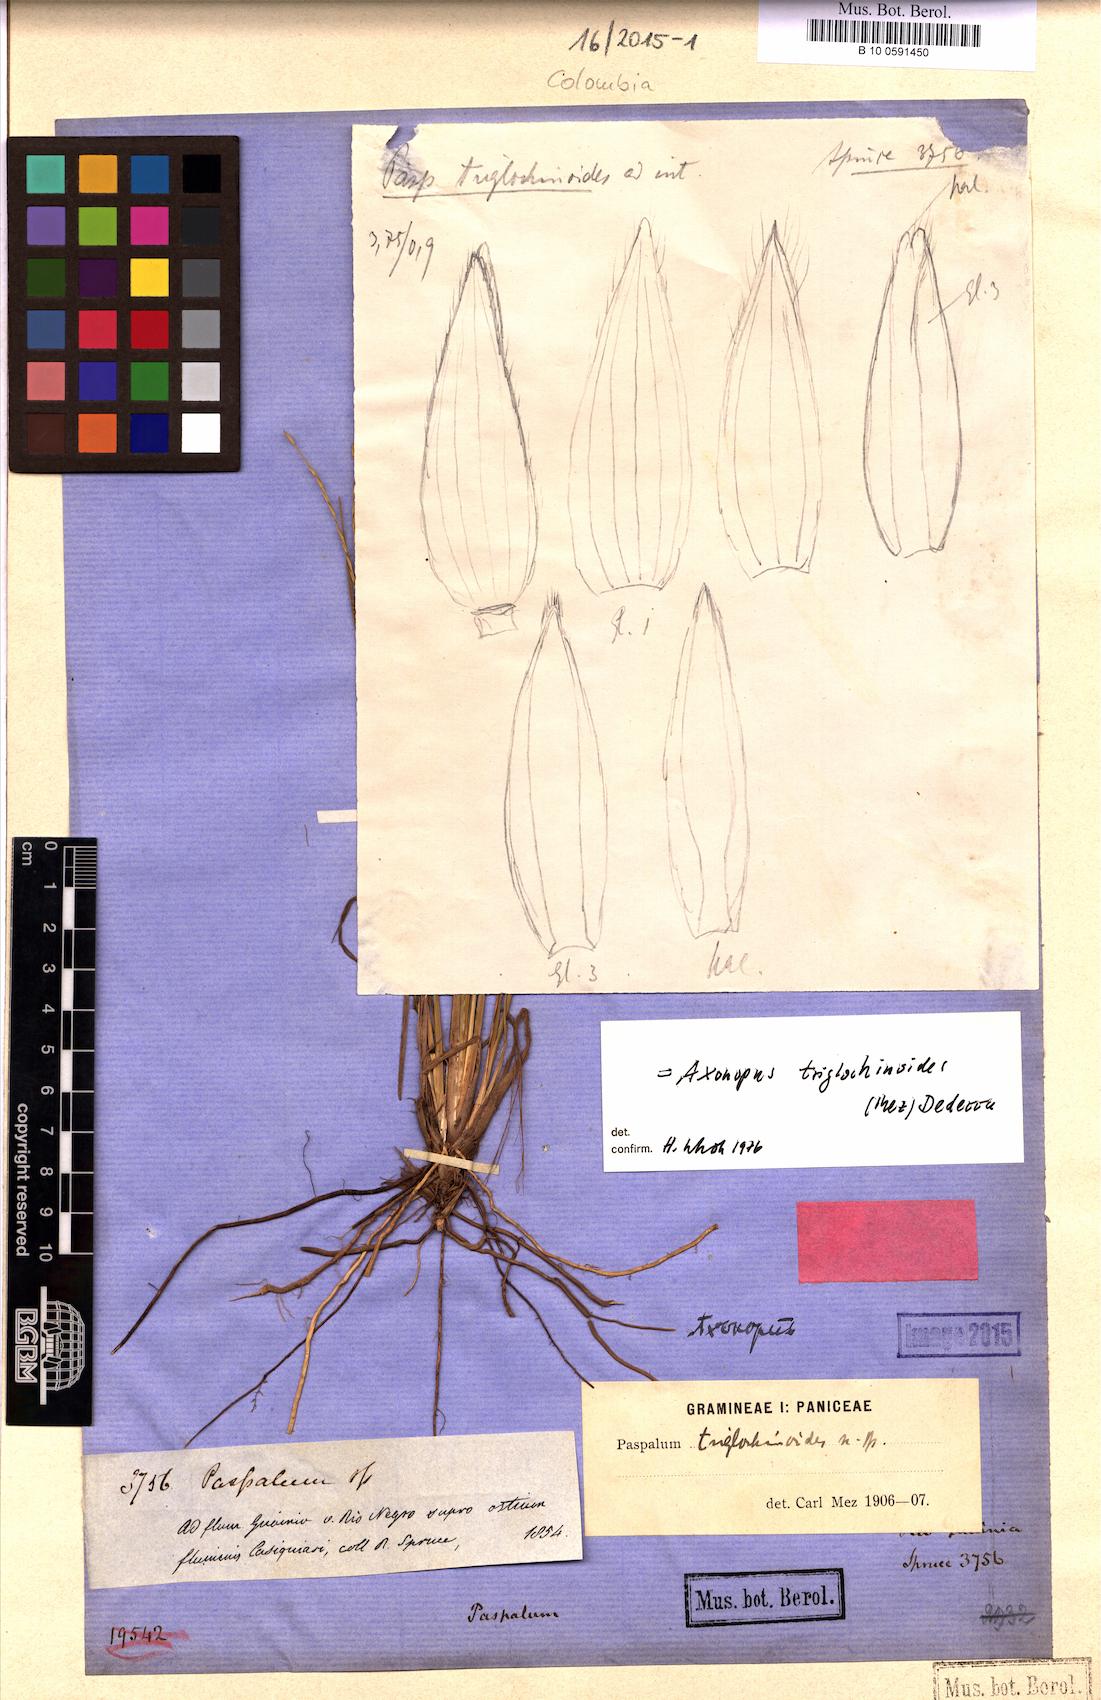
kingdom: Plantae
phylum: Tracheophyta
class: Liliopsida
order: Poales
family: Poaceae
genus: Axonopus
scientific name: Axonopus triglochinoides
